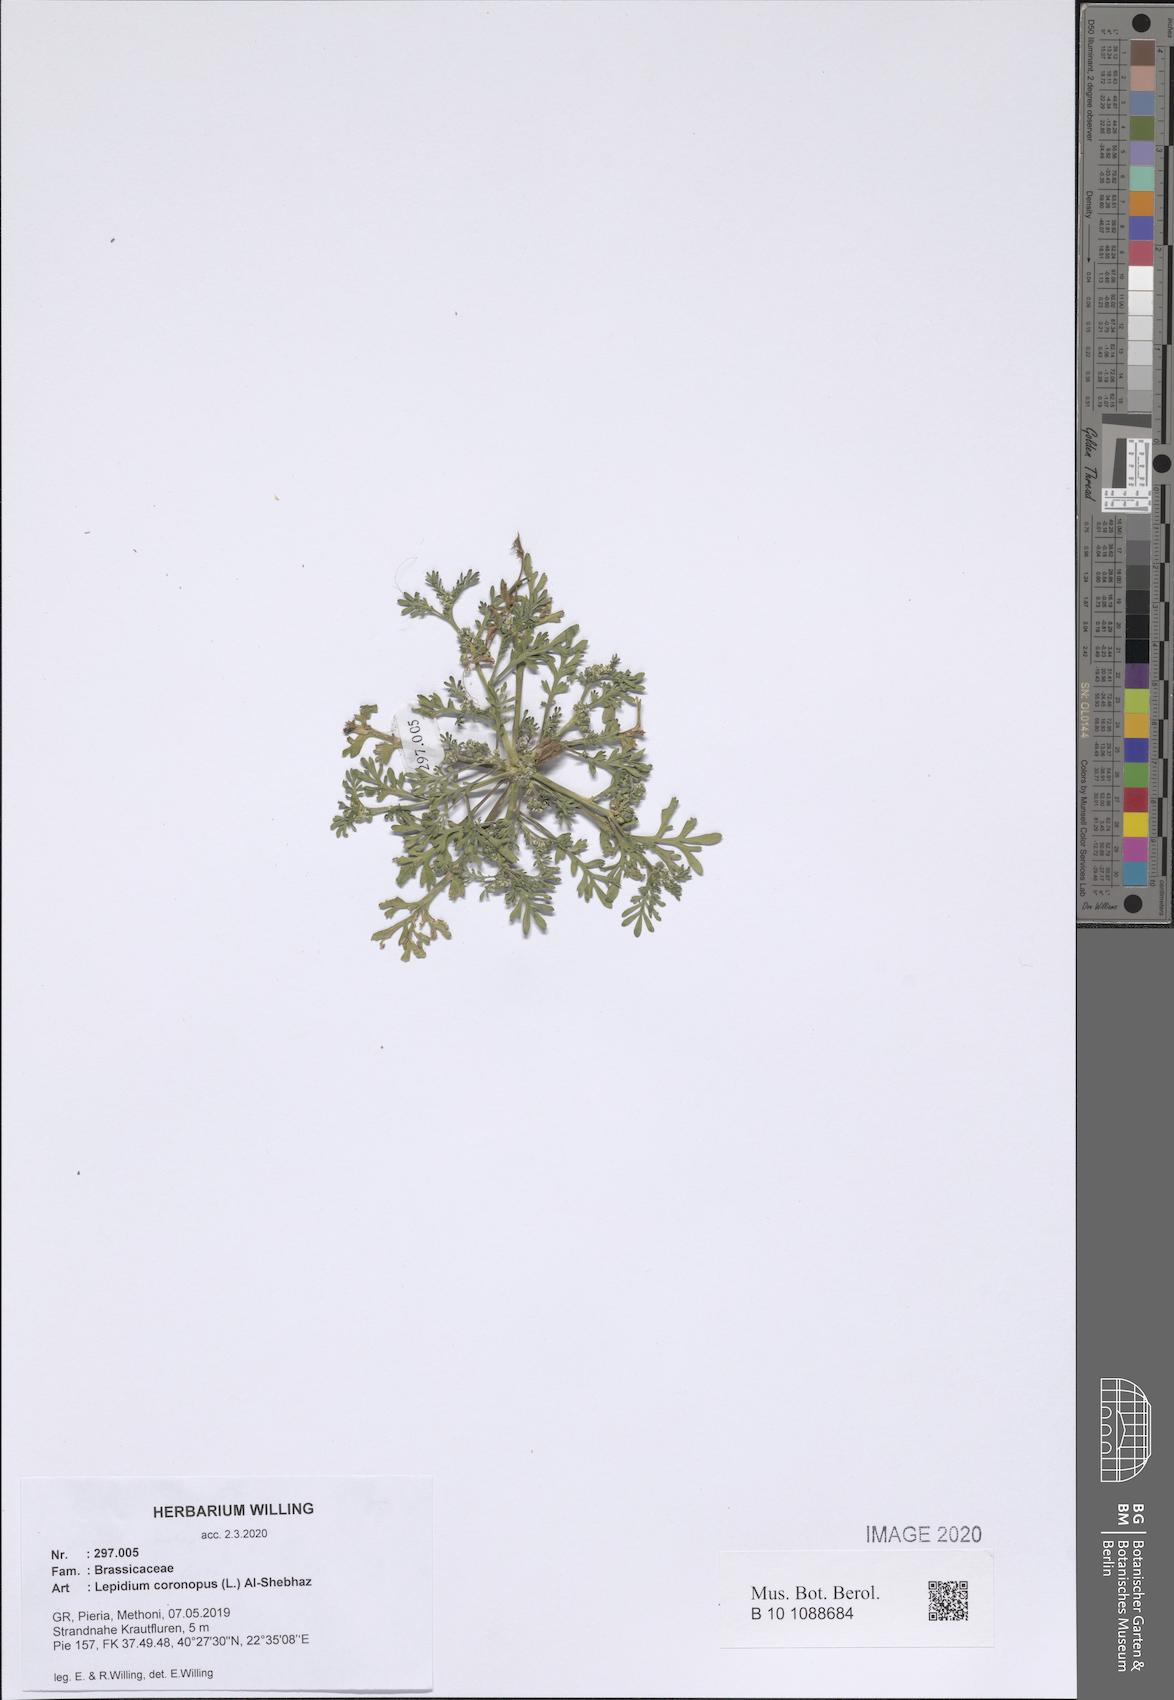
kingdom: Plantae
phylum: Tracheophyta
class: Magnoliopsida
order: Brassicales
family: Brassicaceae
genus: Lepidium
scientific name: Lepidium coronopus
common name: Greater swinecress
